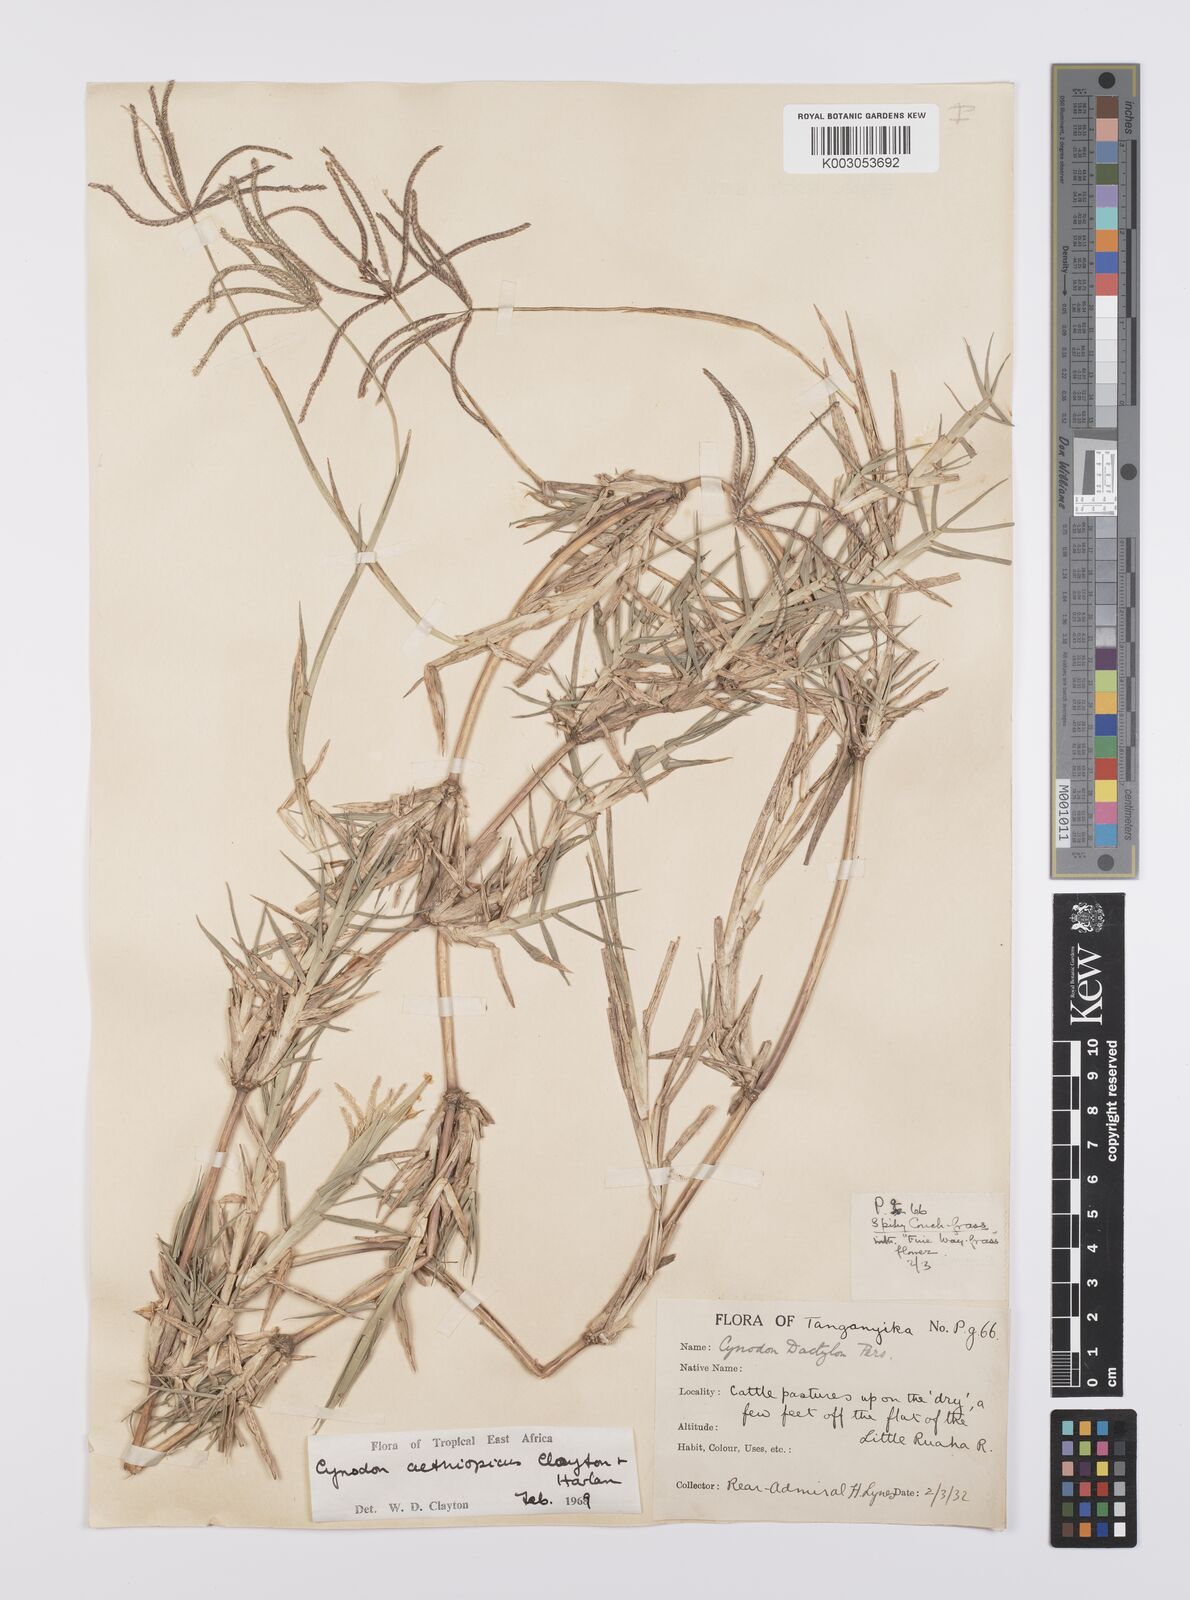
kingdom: Plantae
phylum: Tracheophyta
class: Liliopsida
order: Poales
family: Poaceae
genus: Cynodon
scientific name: Cynodon aethiopicus
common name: Ethiopian dogstooth grass
